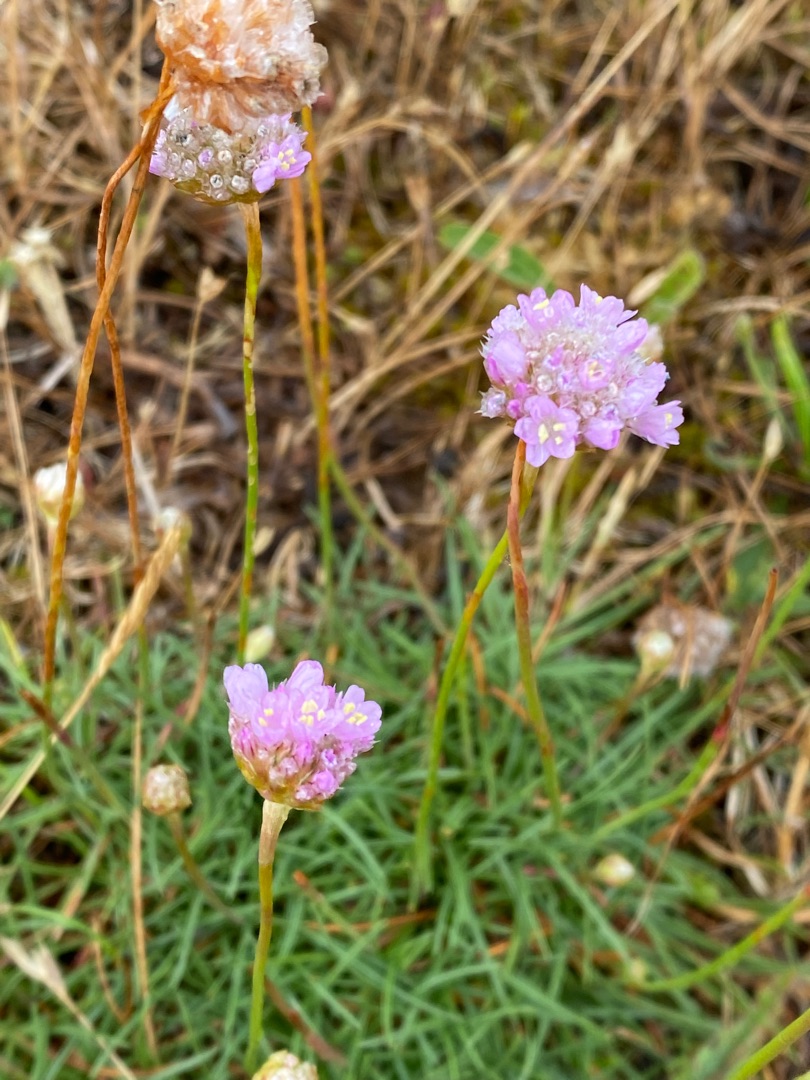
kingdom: Plantae
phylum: Tracheophyta
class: Magnoliopsida
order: Caryophyllales
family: Plumbaginaceae
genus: Armeria
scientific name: Armeria maritima
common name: Engelskgræs
